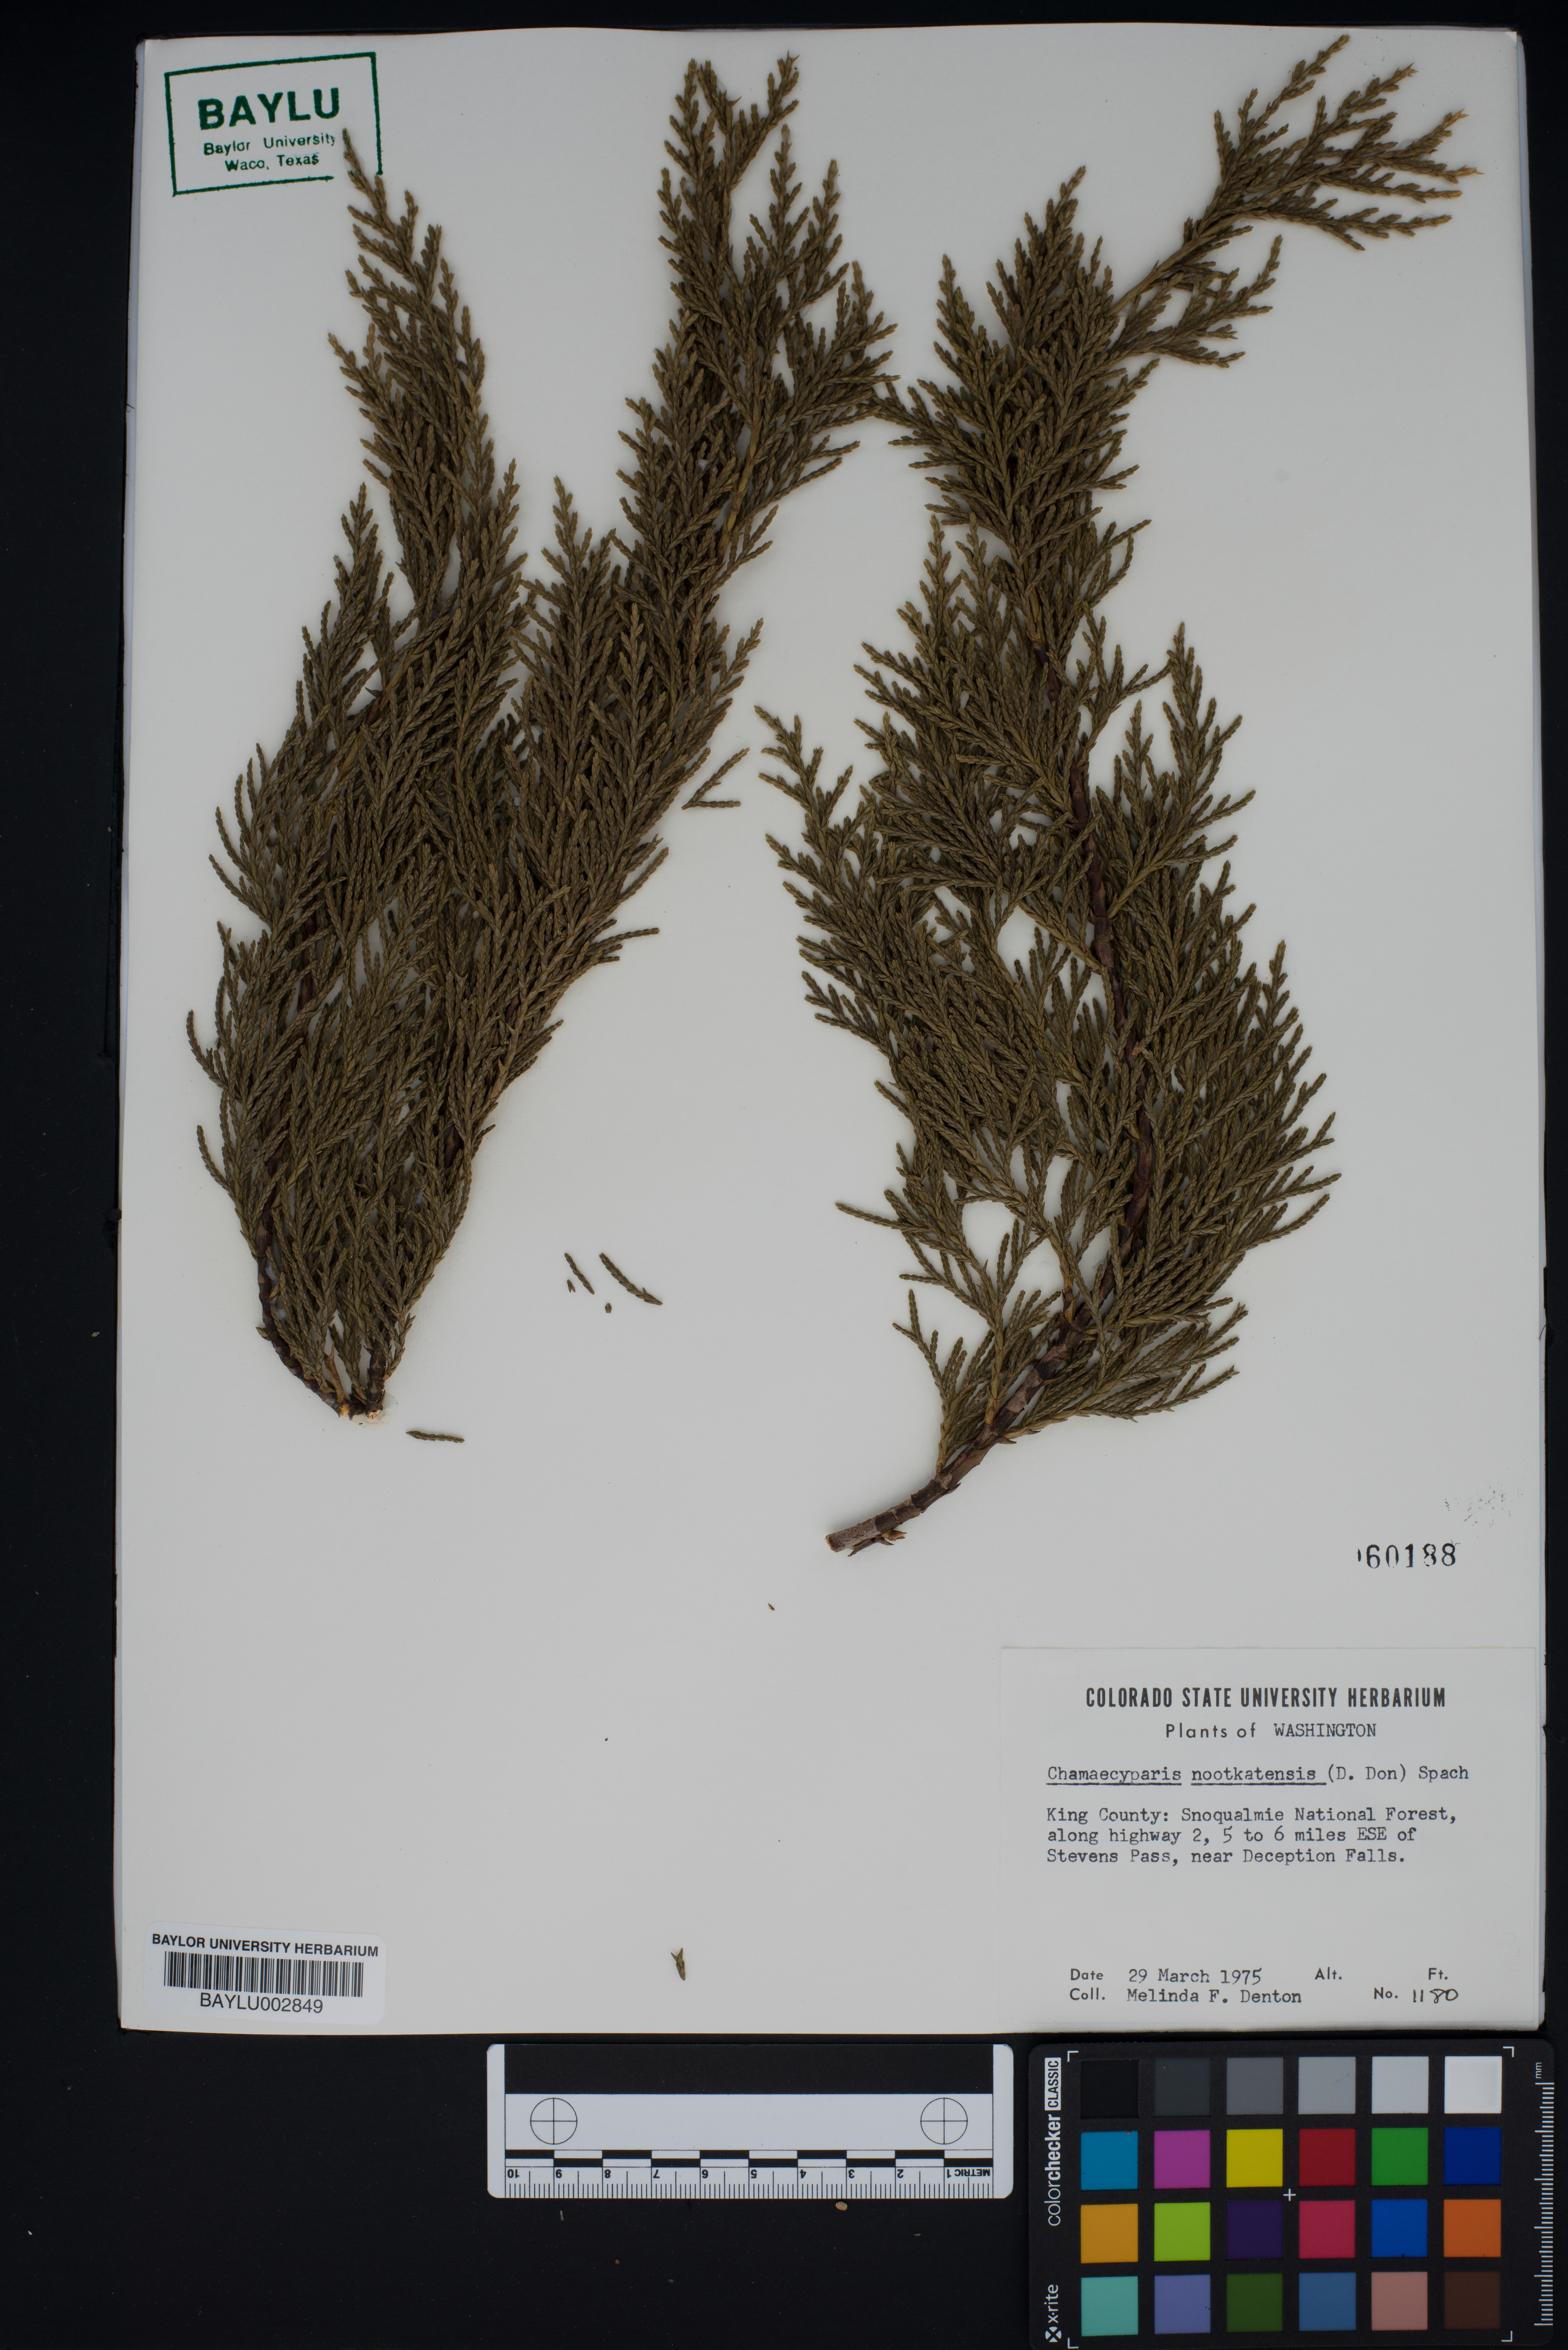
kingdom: Plantae
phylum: Tracheophyta
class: Pinopsida
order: Pinales
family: Cupressaceae
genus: Xanthocyparis
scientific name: Xanthocyparis nootkatensis
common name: Nootka cypress
